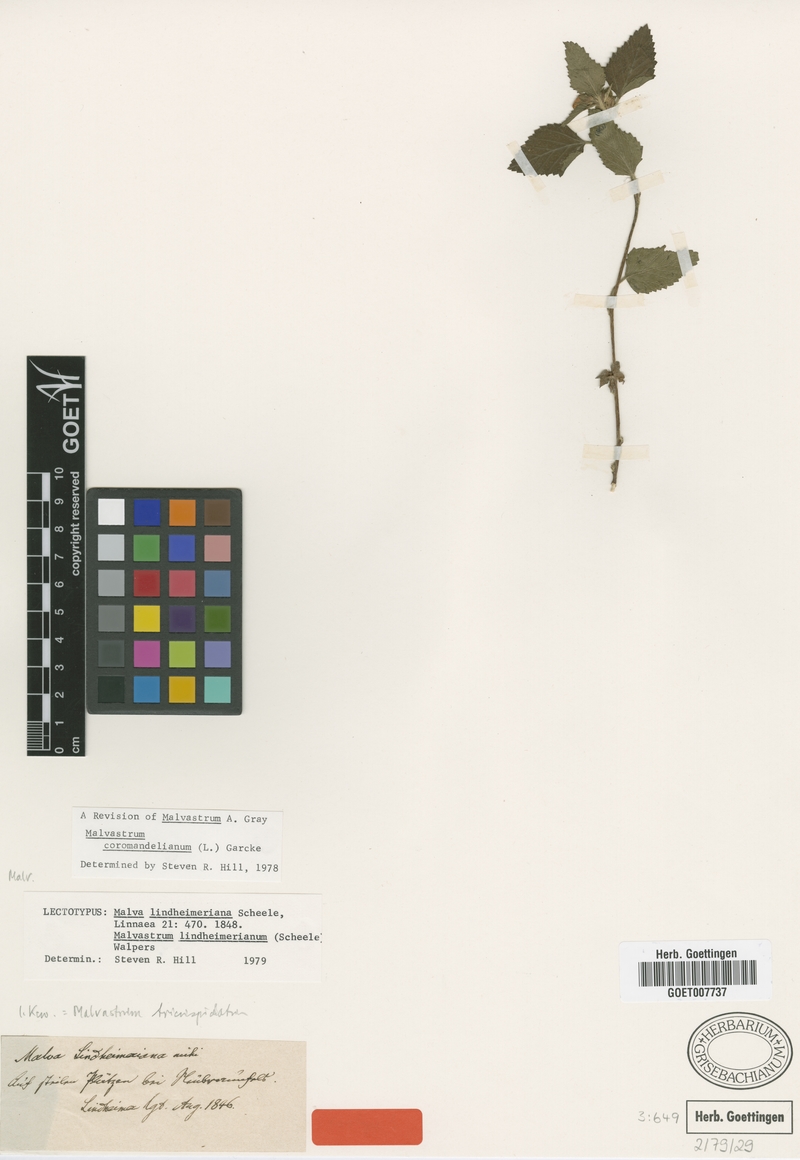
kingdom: Plantae
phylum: Tracheophyta
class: Magnoliopsida
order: Malvales
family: Malvaceae
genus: Malvastrum
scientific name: Malvastrum coromandelianum
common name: Threelobe false mallow
